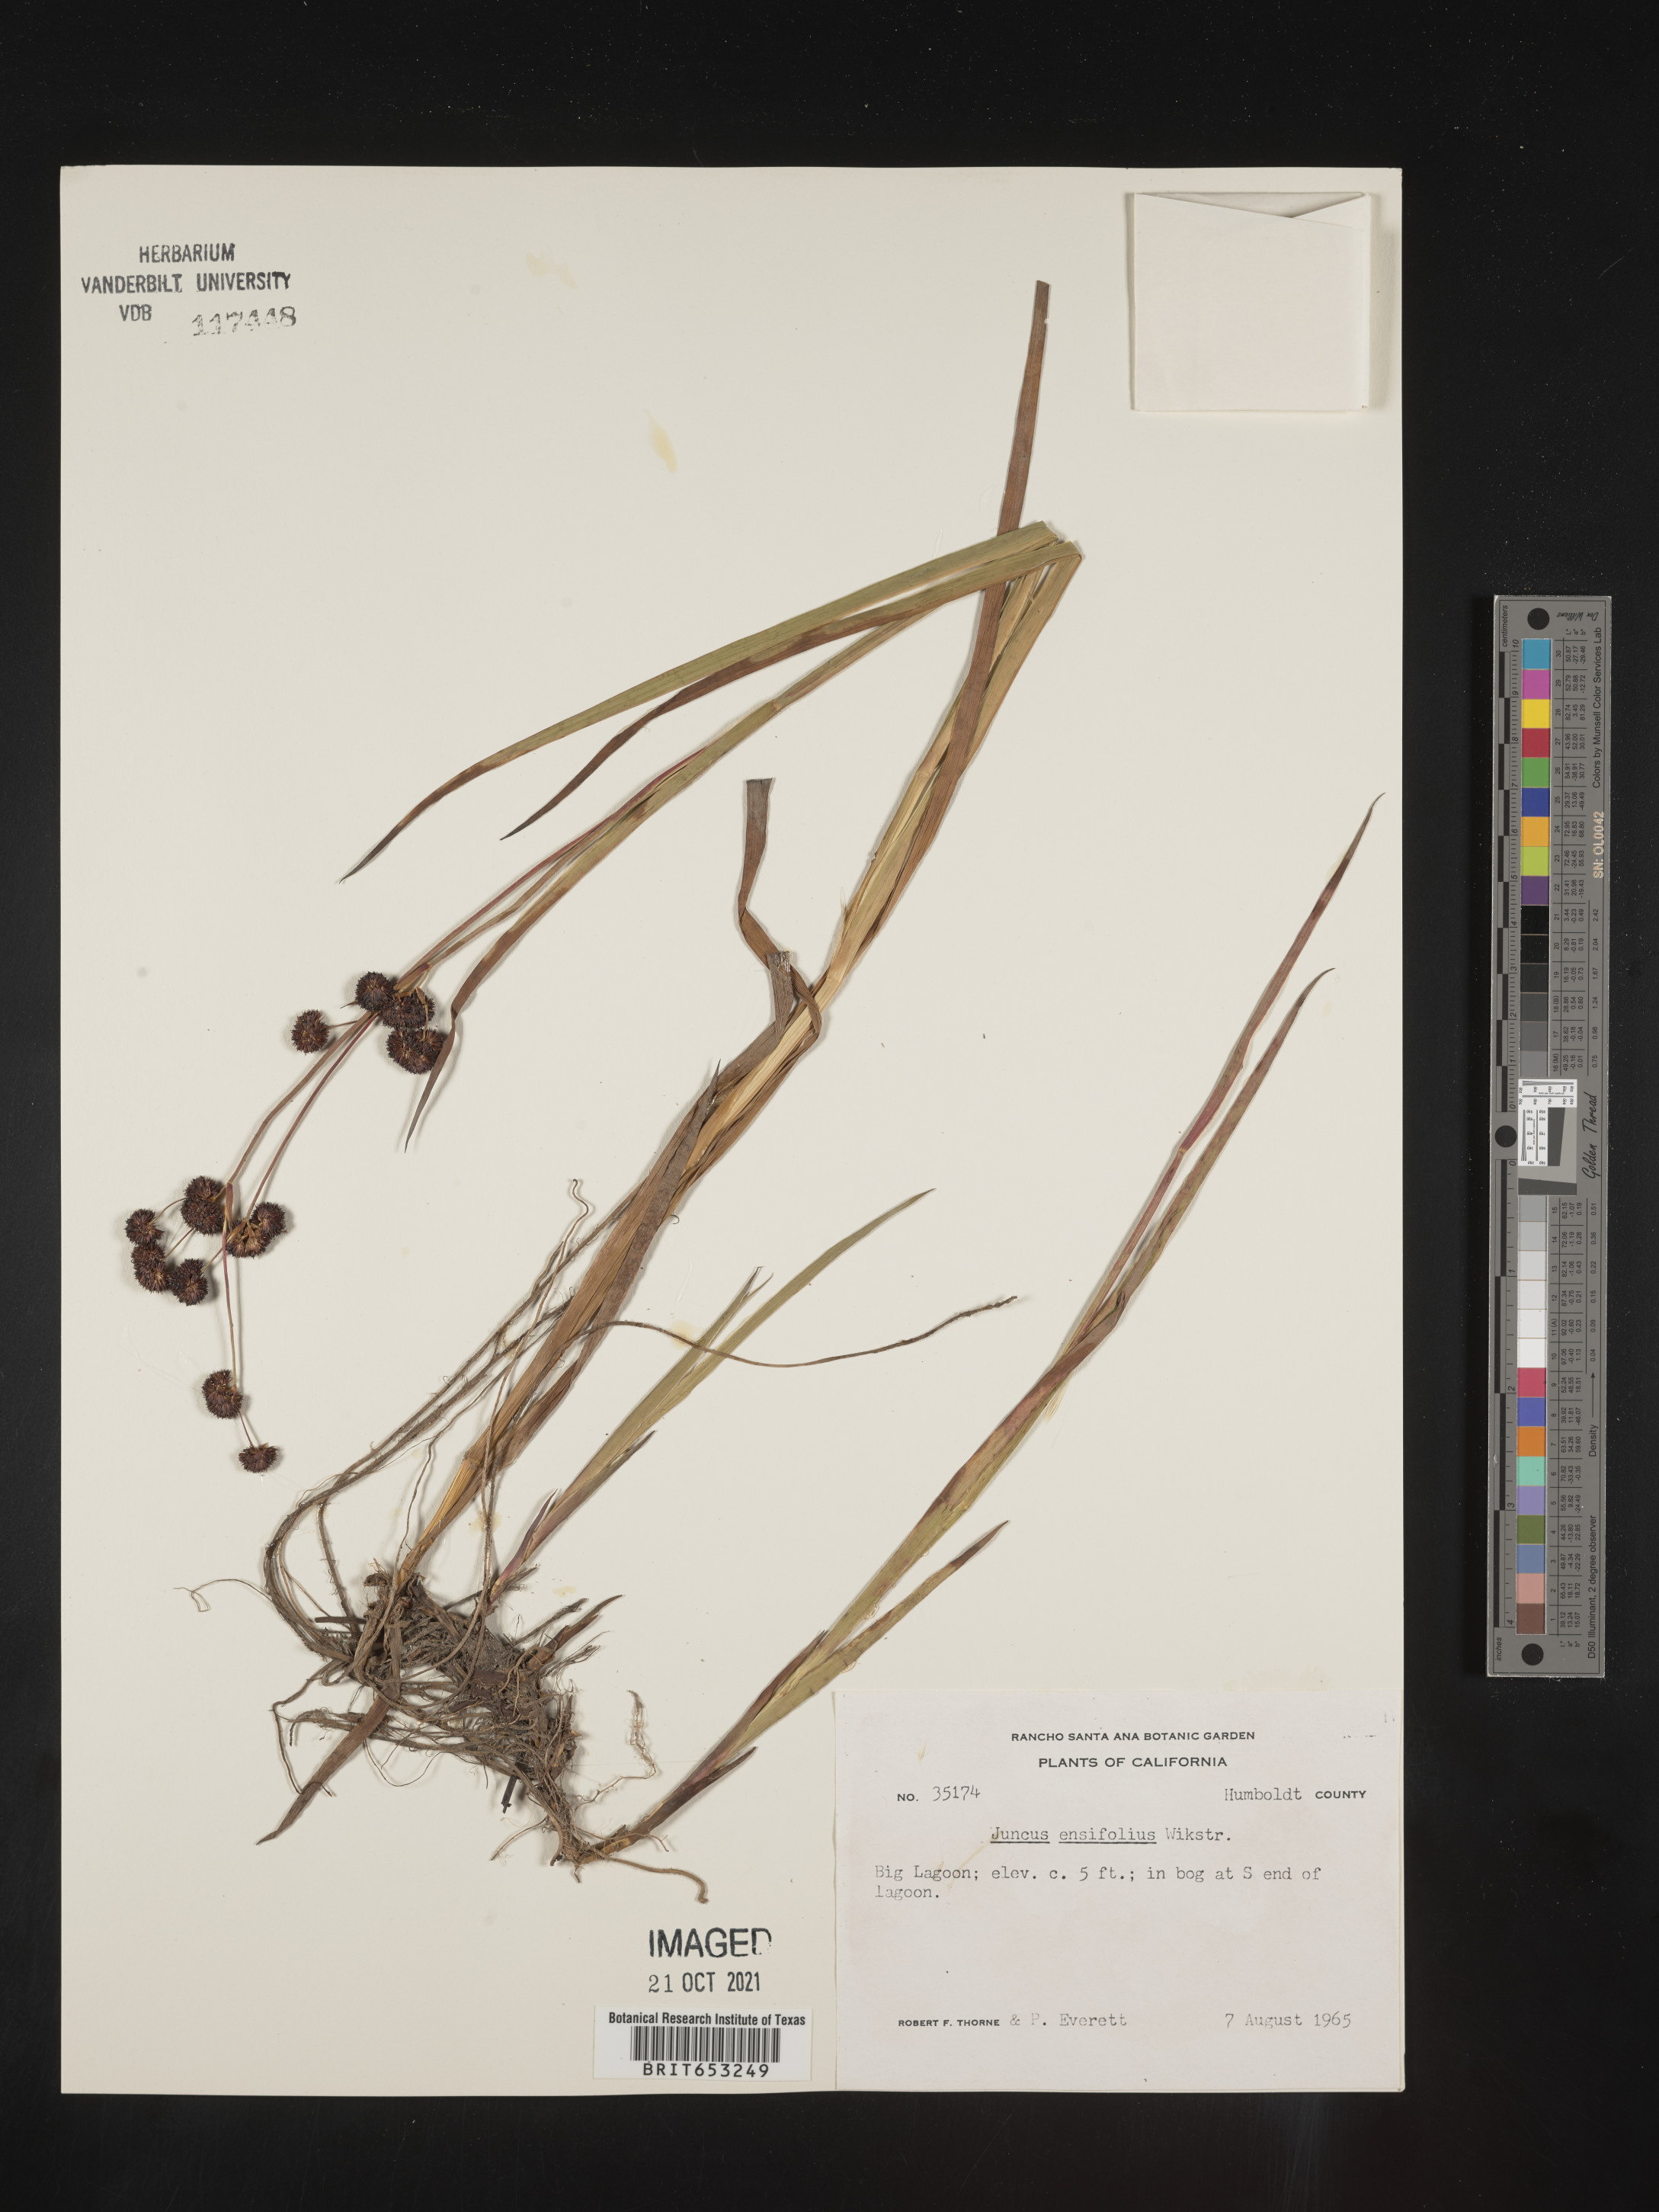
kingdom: Plantae
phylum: Tracheophyta
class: Liliopsida
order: Poales
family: Juncaceae
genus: Juncus
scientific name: Juncus ensifolius
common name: Sword-leaved rush
